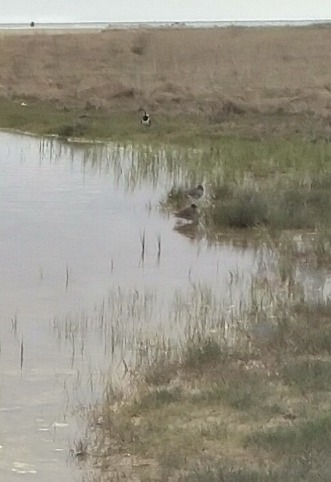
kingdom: Animalia
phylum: Chordata
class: Aves
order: Charadriiformes
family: Scolopacidae
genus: Tringa
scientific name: Tringa totanus
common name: Rødben
